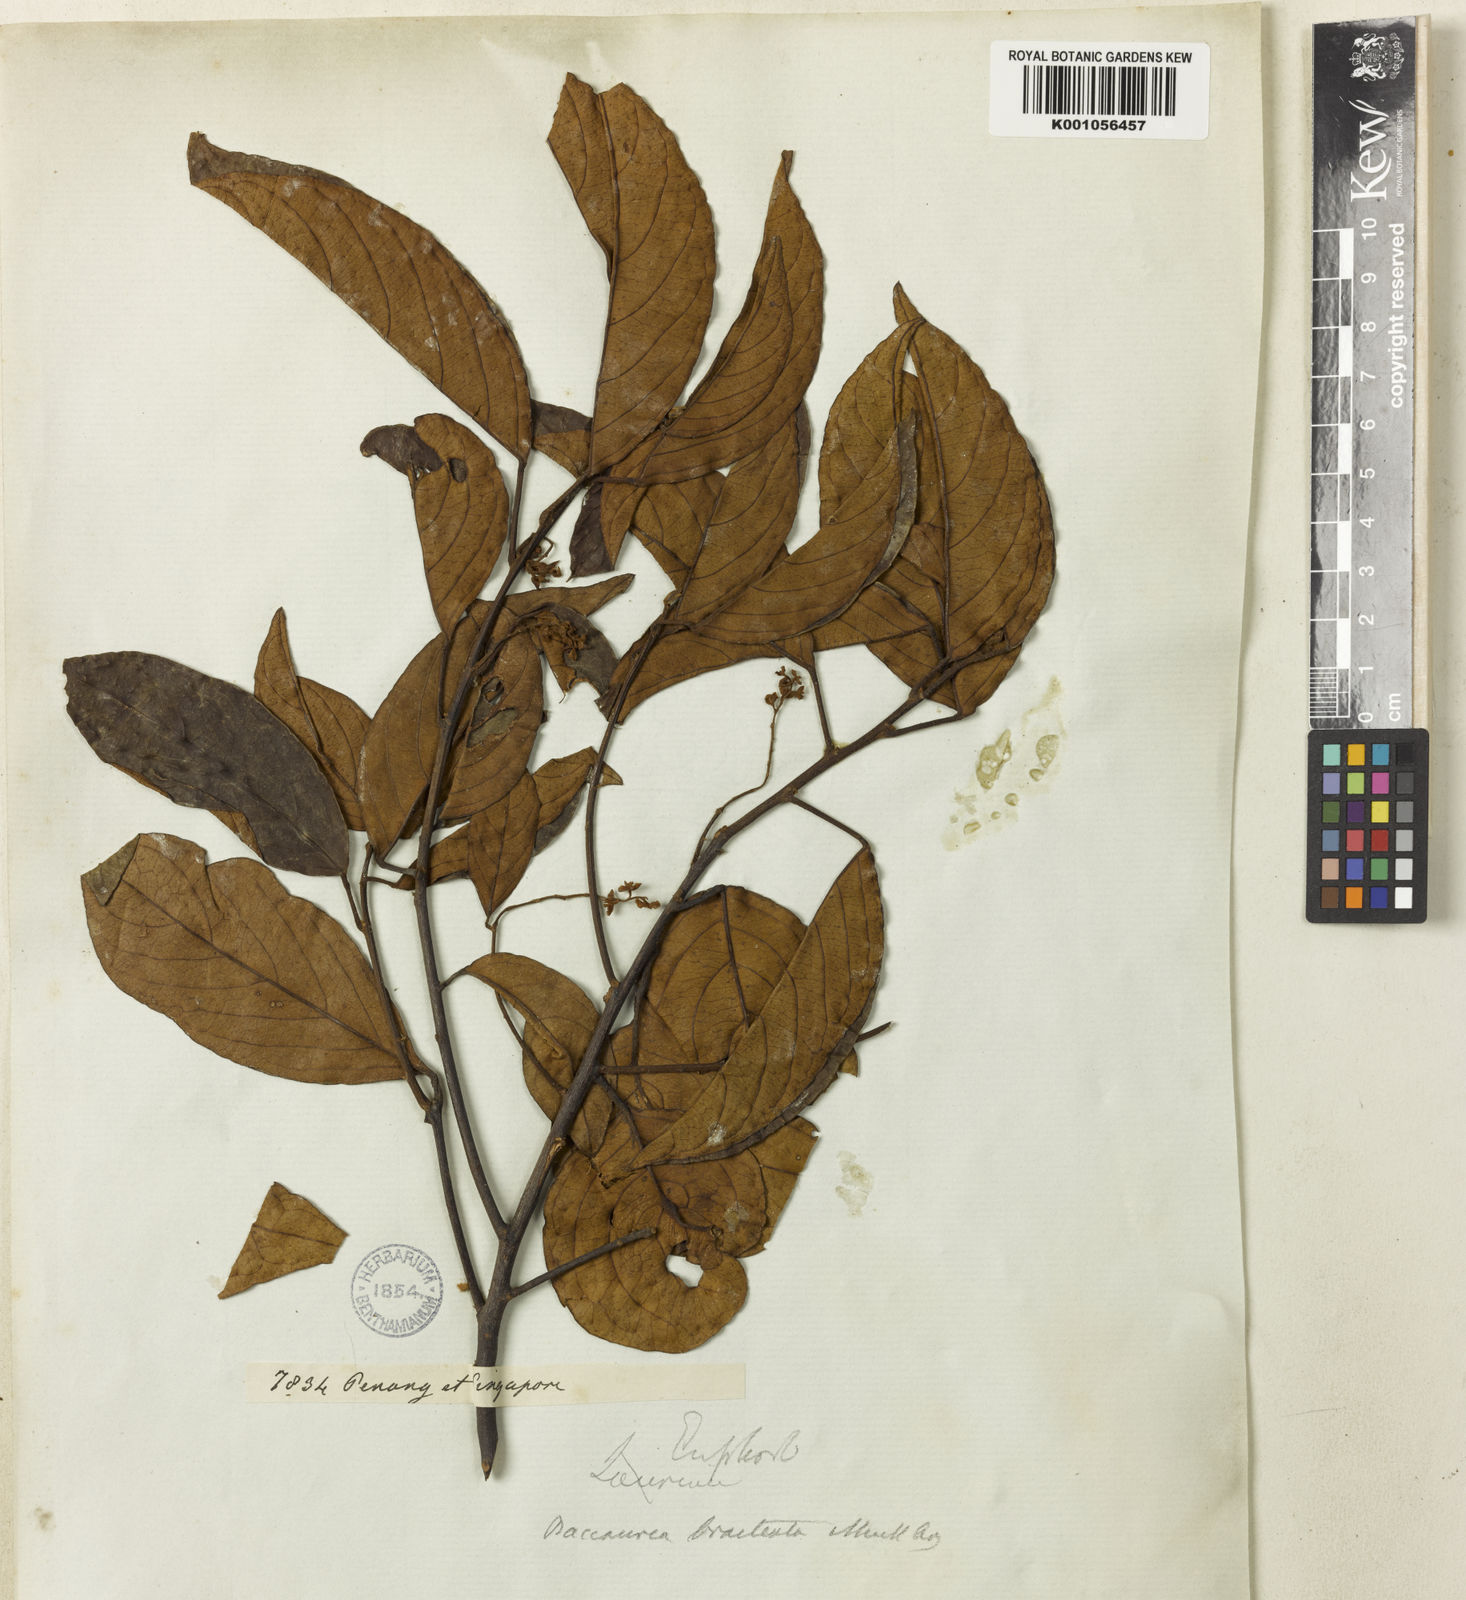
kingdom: Plantae
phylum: Tracheophyta
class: Magnoliopsida
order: Malpighiales
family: Phyllanthaceae
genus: Baccaurea
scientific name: Baccaurea
